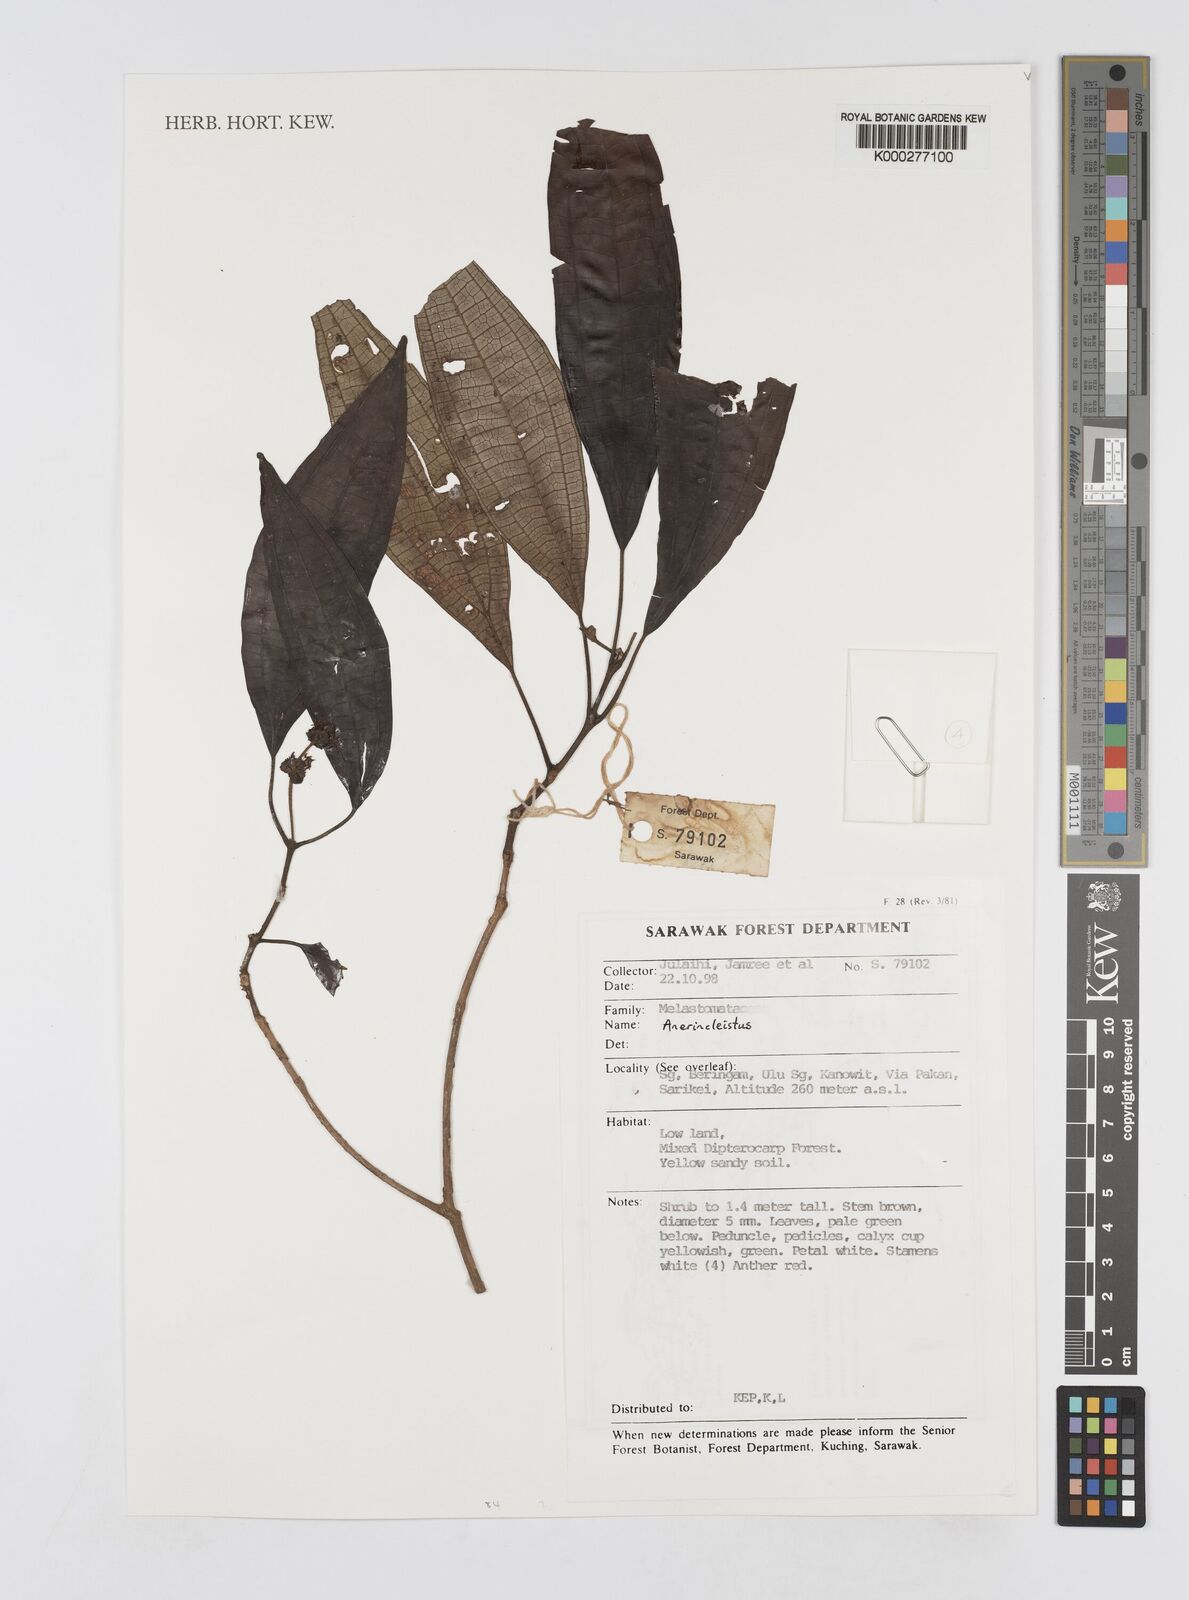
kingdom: Plantae
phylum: Tracheophyta
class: Magnoliopsida
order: Myrtales
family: Melastomataceae
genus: Anerincleistus
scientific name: Anerincleistus
